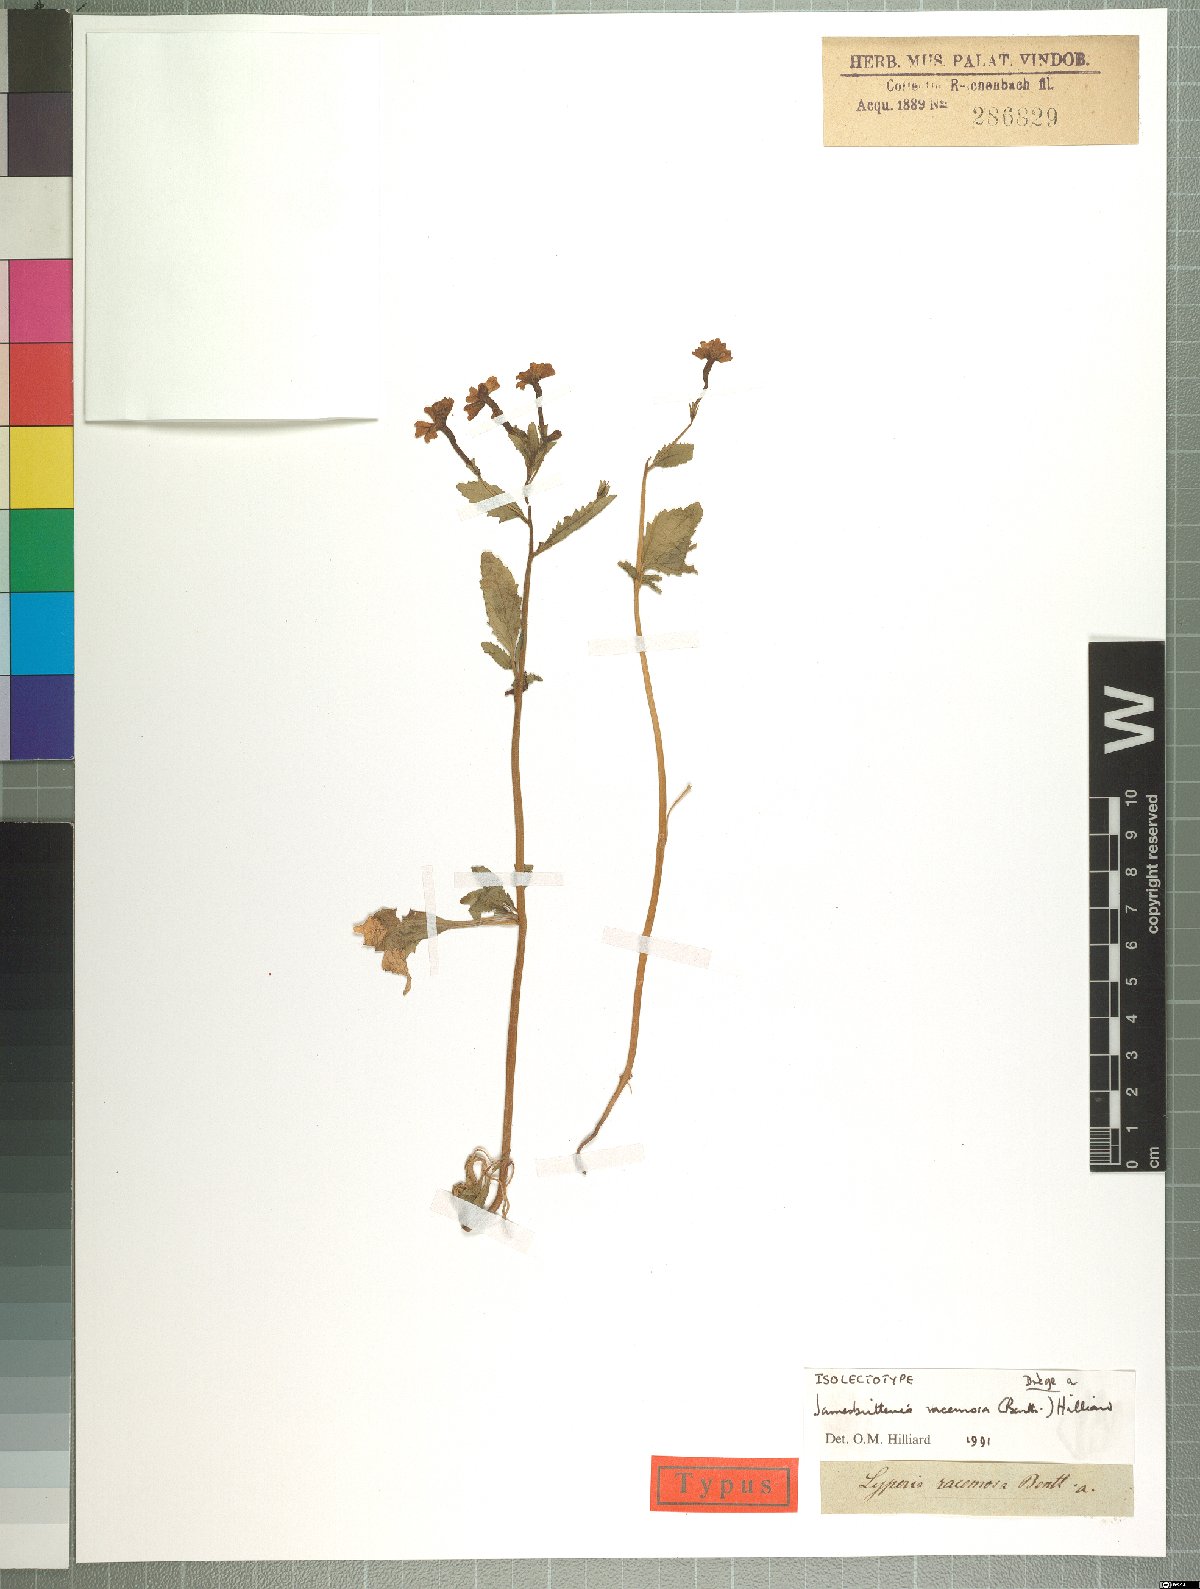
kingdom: Plantae
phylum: Tracheophyta
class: Magnoliopsida
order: Lamiales
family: Scrophulariaceae
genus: Jamesbrittenia
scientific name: Jamesbrittenia racemosa
